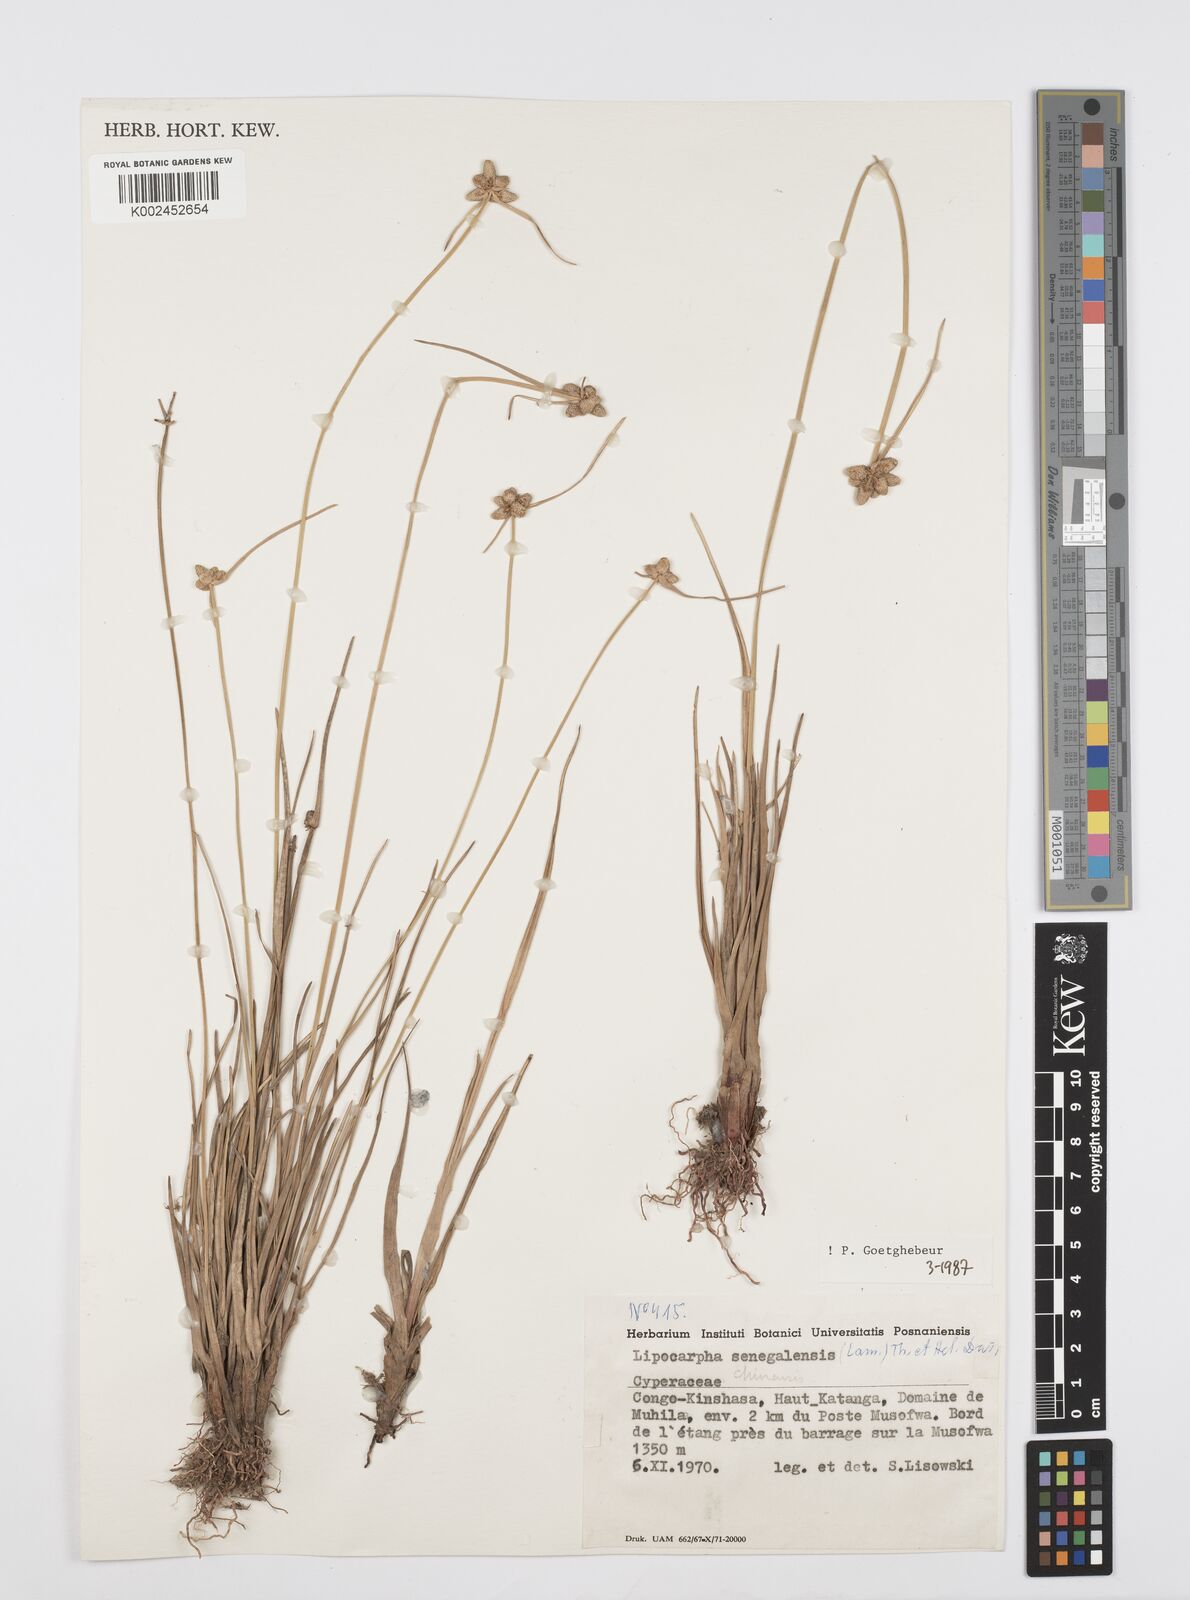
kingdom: Plantae
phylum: Tracheophyta
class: Liliopsida
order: Poales
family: Cyperaceae
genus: Cyperus
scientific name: Cyperus albescens
